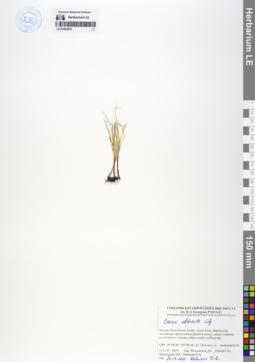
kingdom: Plantae
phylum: Tracheophyta
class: Liliopsida
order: Poales
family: Cyperaceae
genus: Carex
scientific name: Carex obtusata
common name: Blunt sedge
